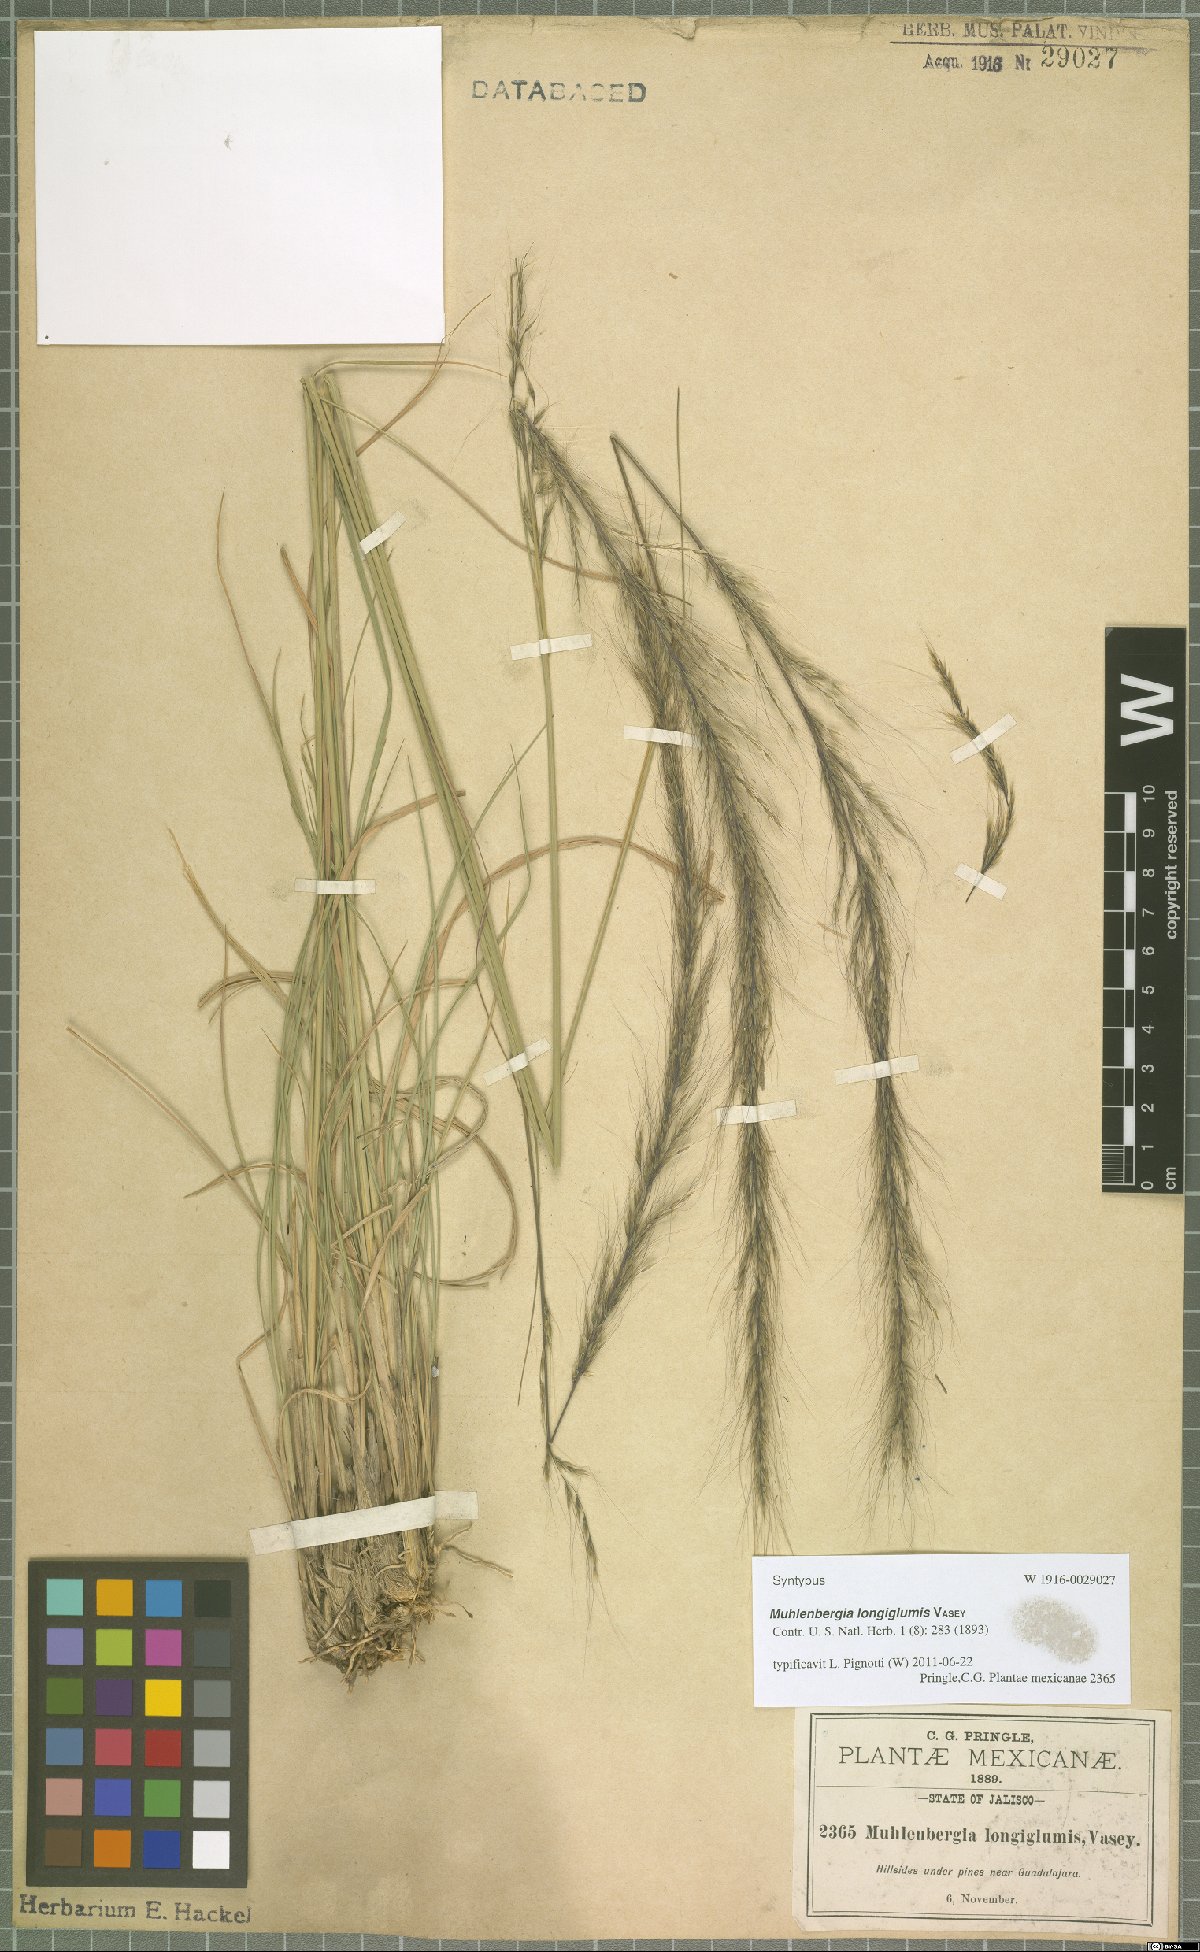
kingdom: Plantae
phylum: Tracheophyta
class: Liliopsida
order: Poales
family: Poaceae
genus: Muhlenbergia
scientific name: Muhlenbergia longiglumis
